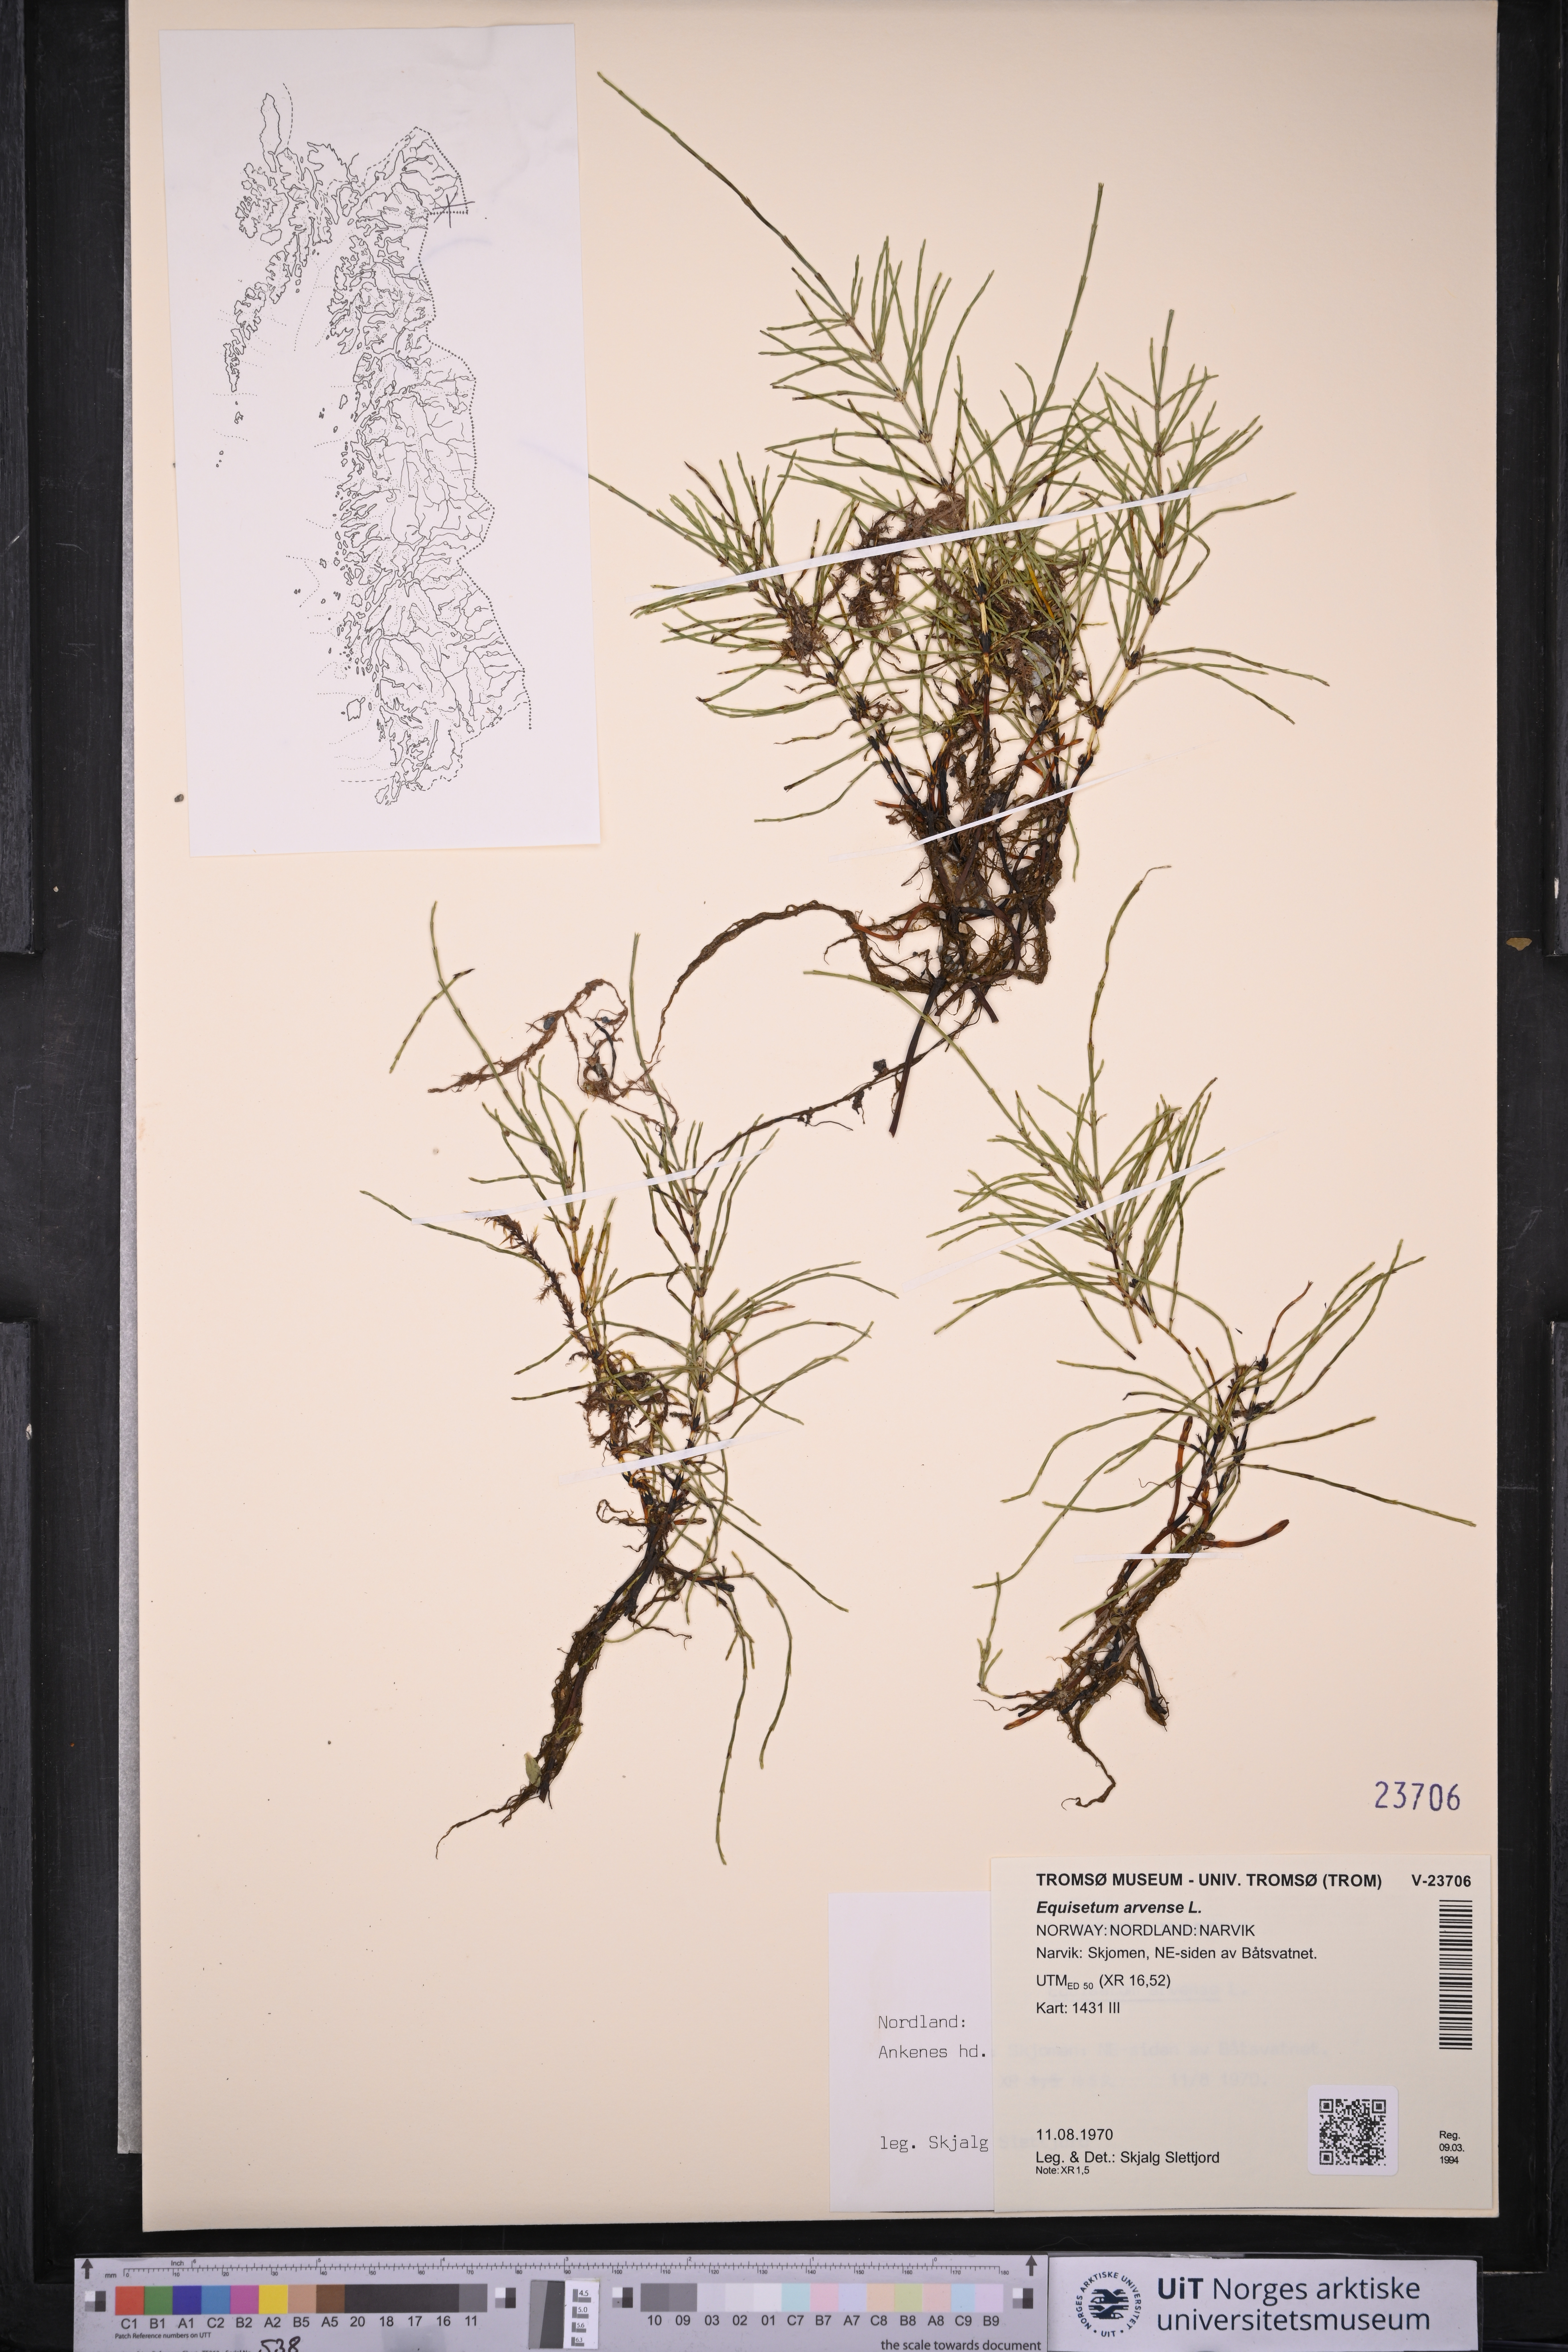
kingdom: Plantae
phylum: Tracheophyta
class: Polypodiopsida
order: Equisetales
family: Equisetaceae
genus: Equisetum
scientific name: Equisetum arvense
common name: Field horsetail
